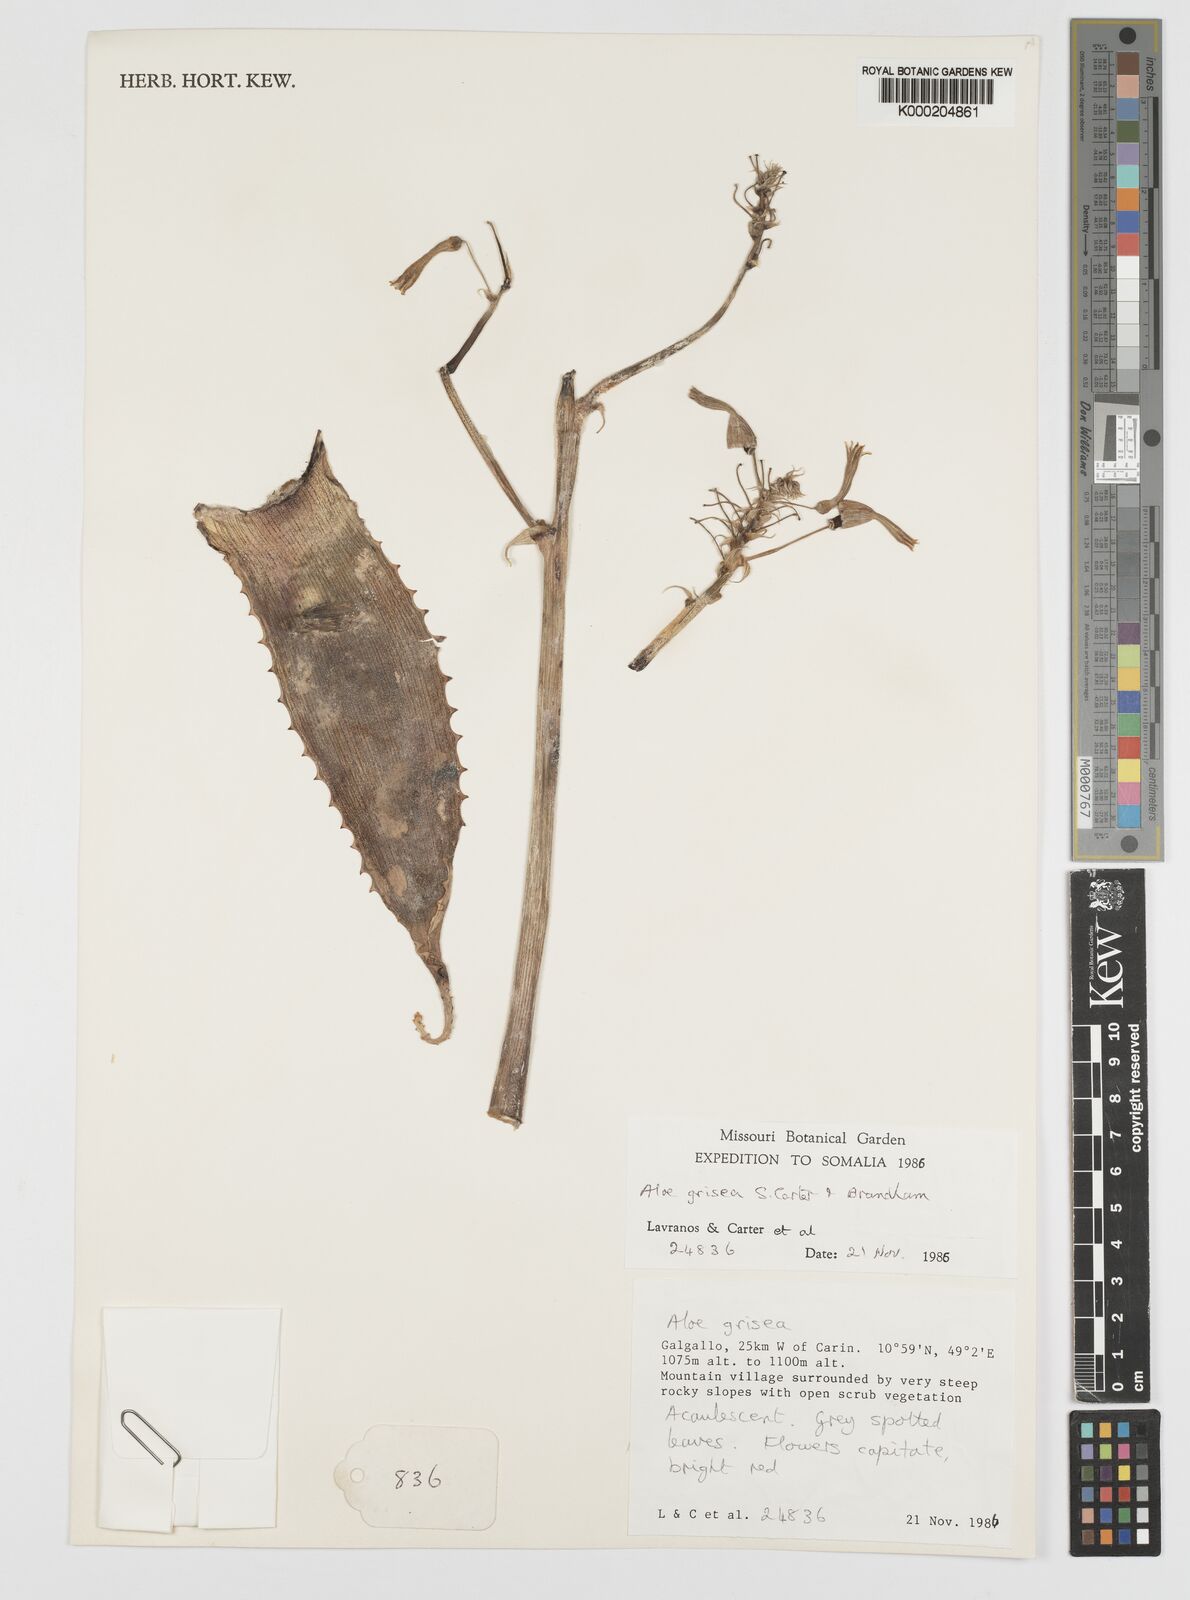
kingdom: Plantae
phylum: Tracheophyta
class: Liliopsida
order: Asparagales
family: Asphodelaceae
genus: Aloe
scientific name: Aloe grisea
